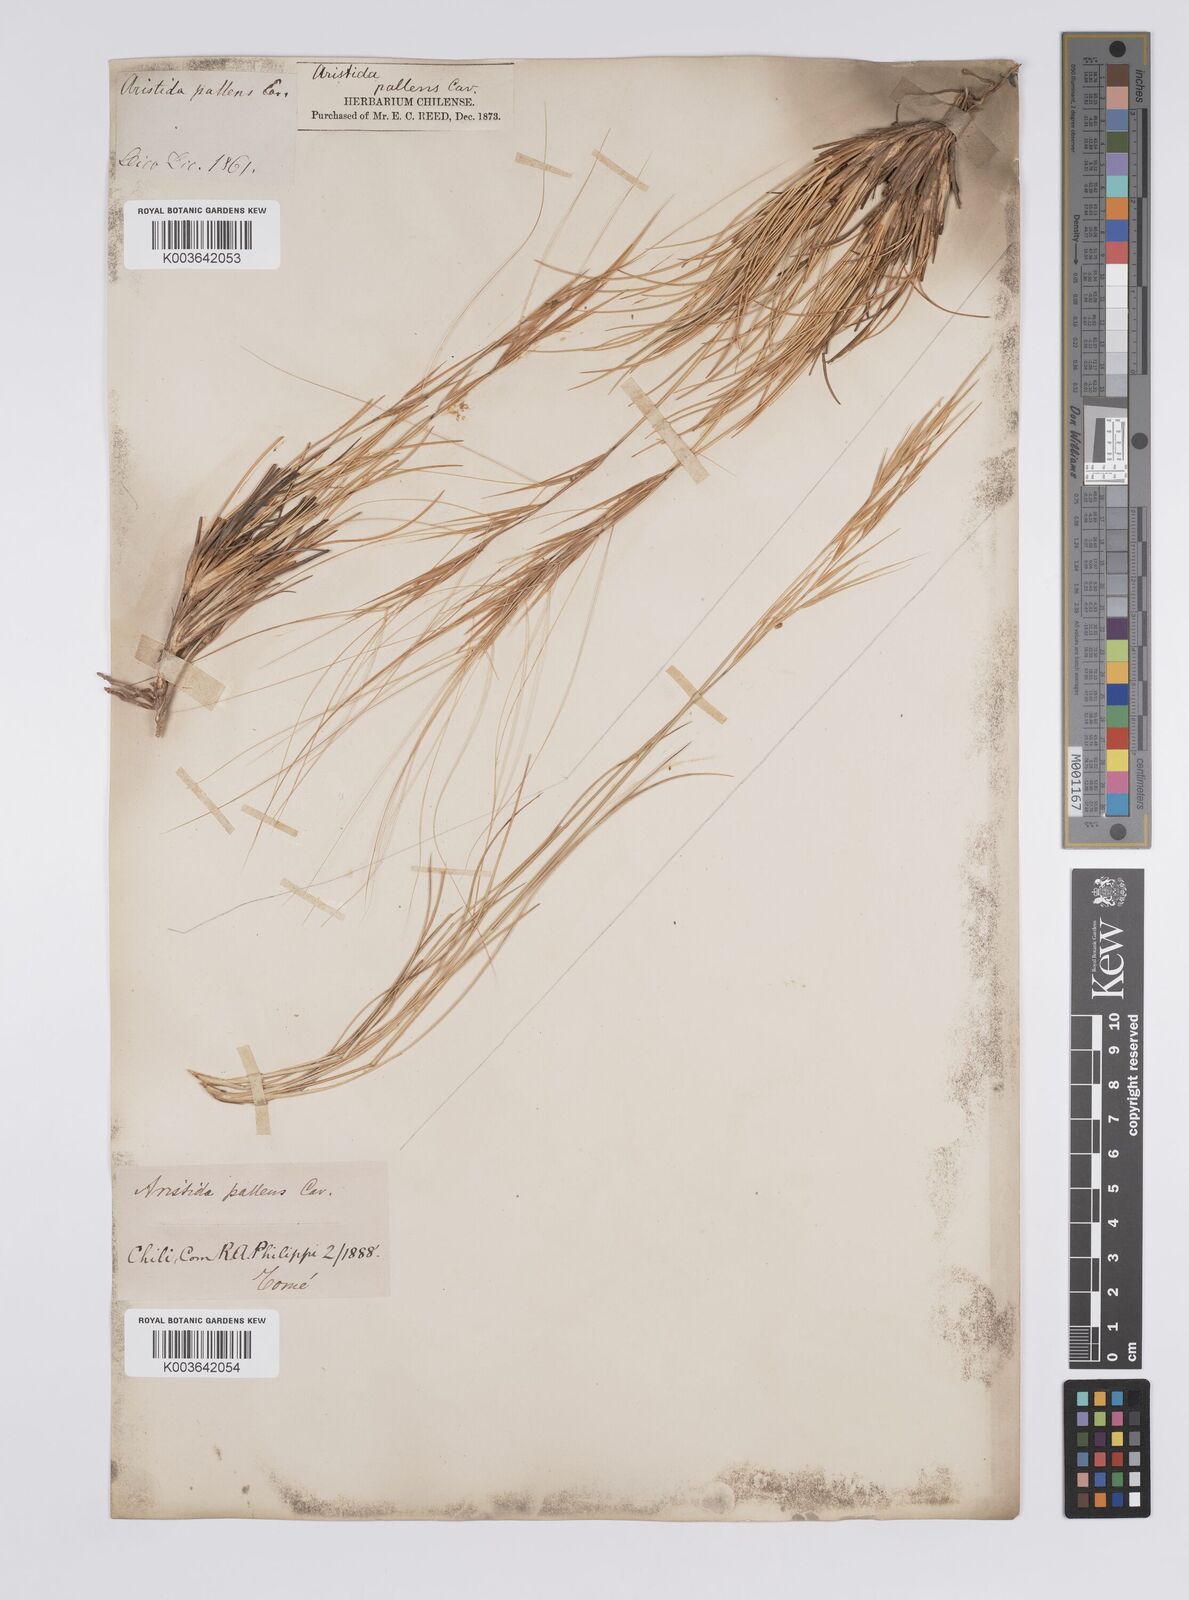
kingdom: Plantae
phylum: Tracheophyta
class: Liliopsida
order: Poales
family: Poaceae
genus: Aristida
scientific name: Aristida pallens
